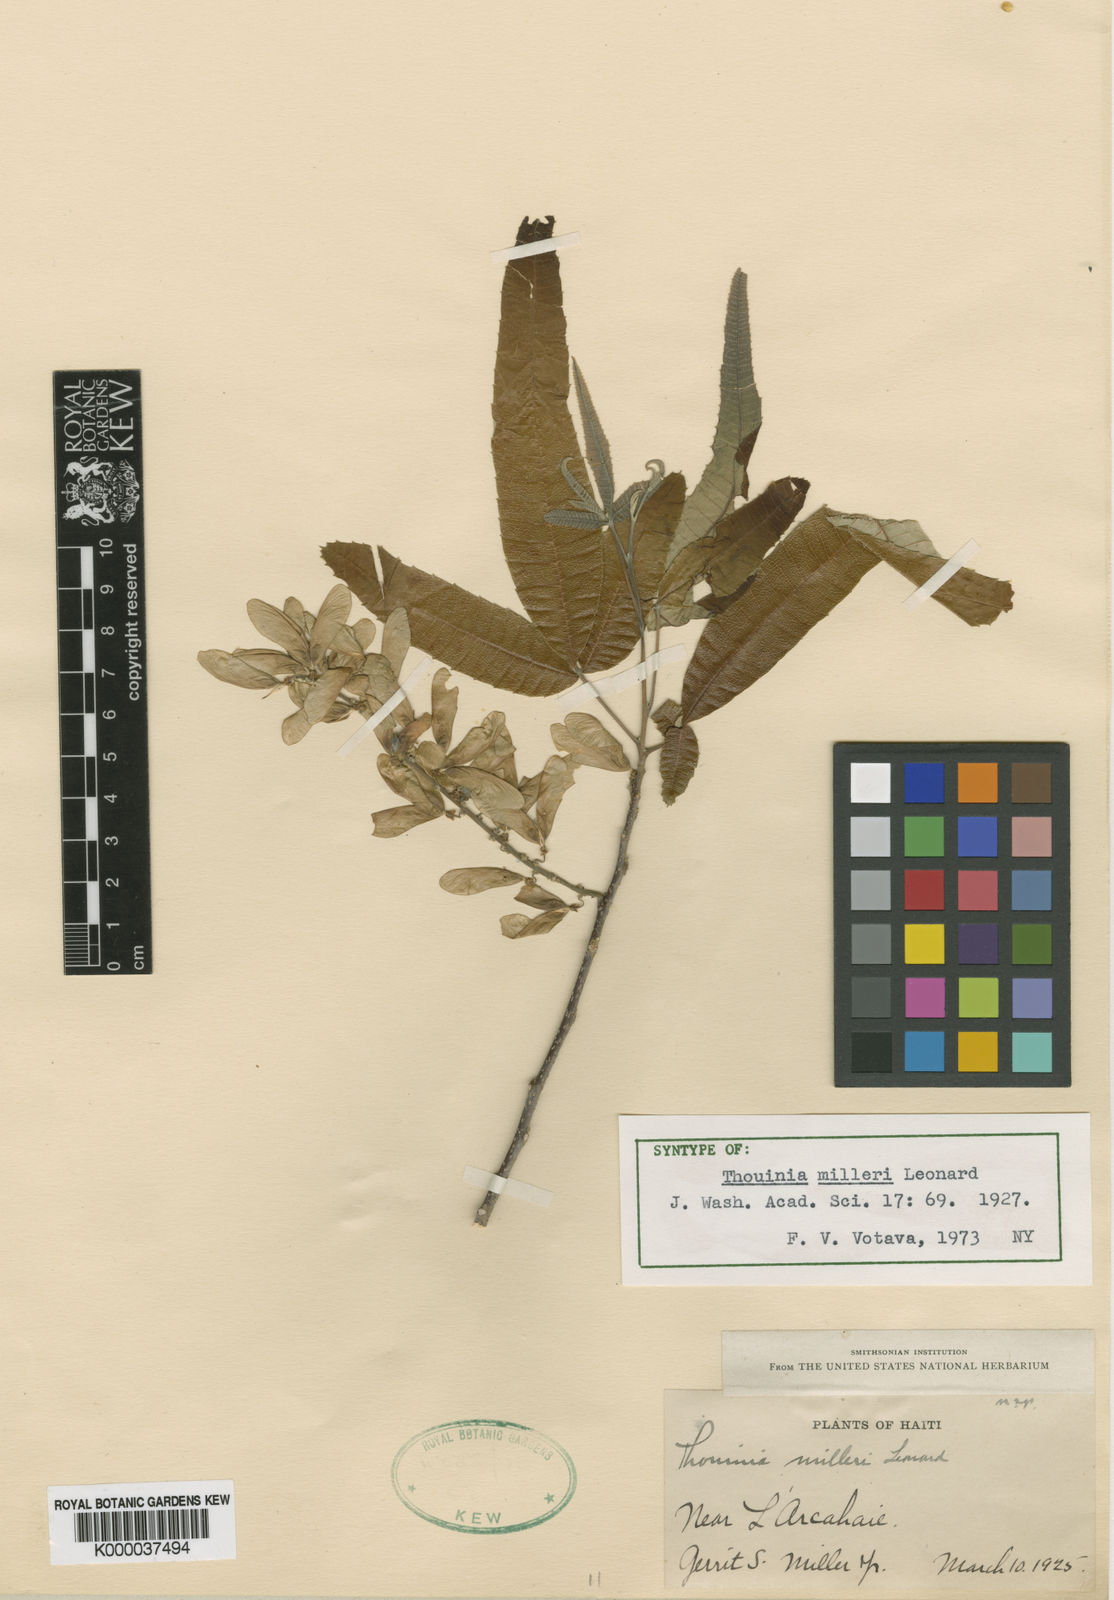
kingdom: Plantae
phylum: Tracheophyta
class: Magnoliopsida
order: Sapindales
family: Sapindaceae
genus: Thouinia
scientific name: Thouinia milleri
